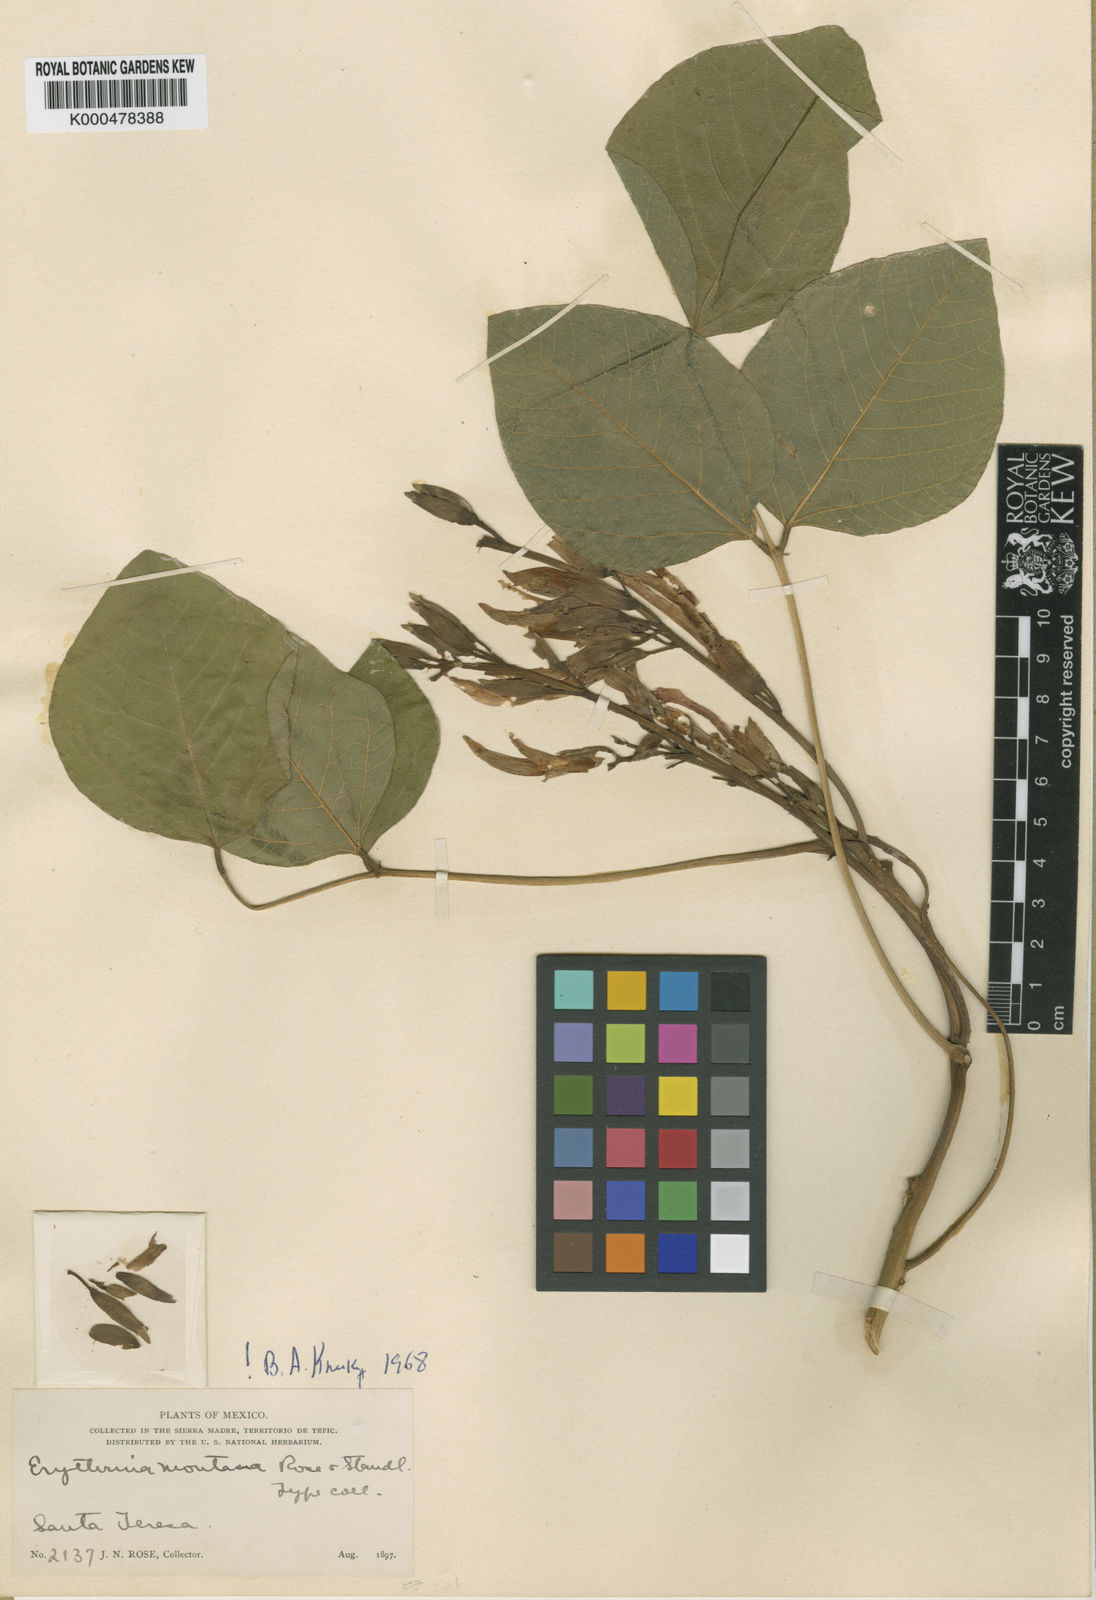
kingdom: Plantae
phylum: Tracheophyta
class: Magnoliopsida
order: Fabales
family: Fabaceae
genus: Erythrina
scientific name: Erythrina longipes
